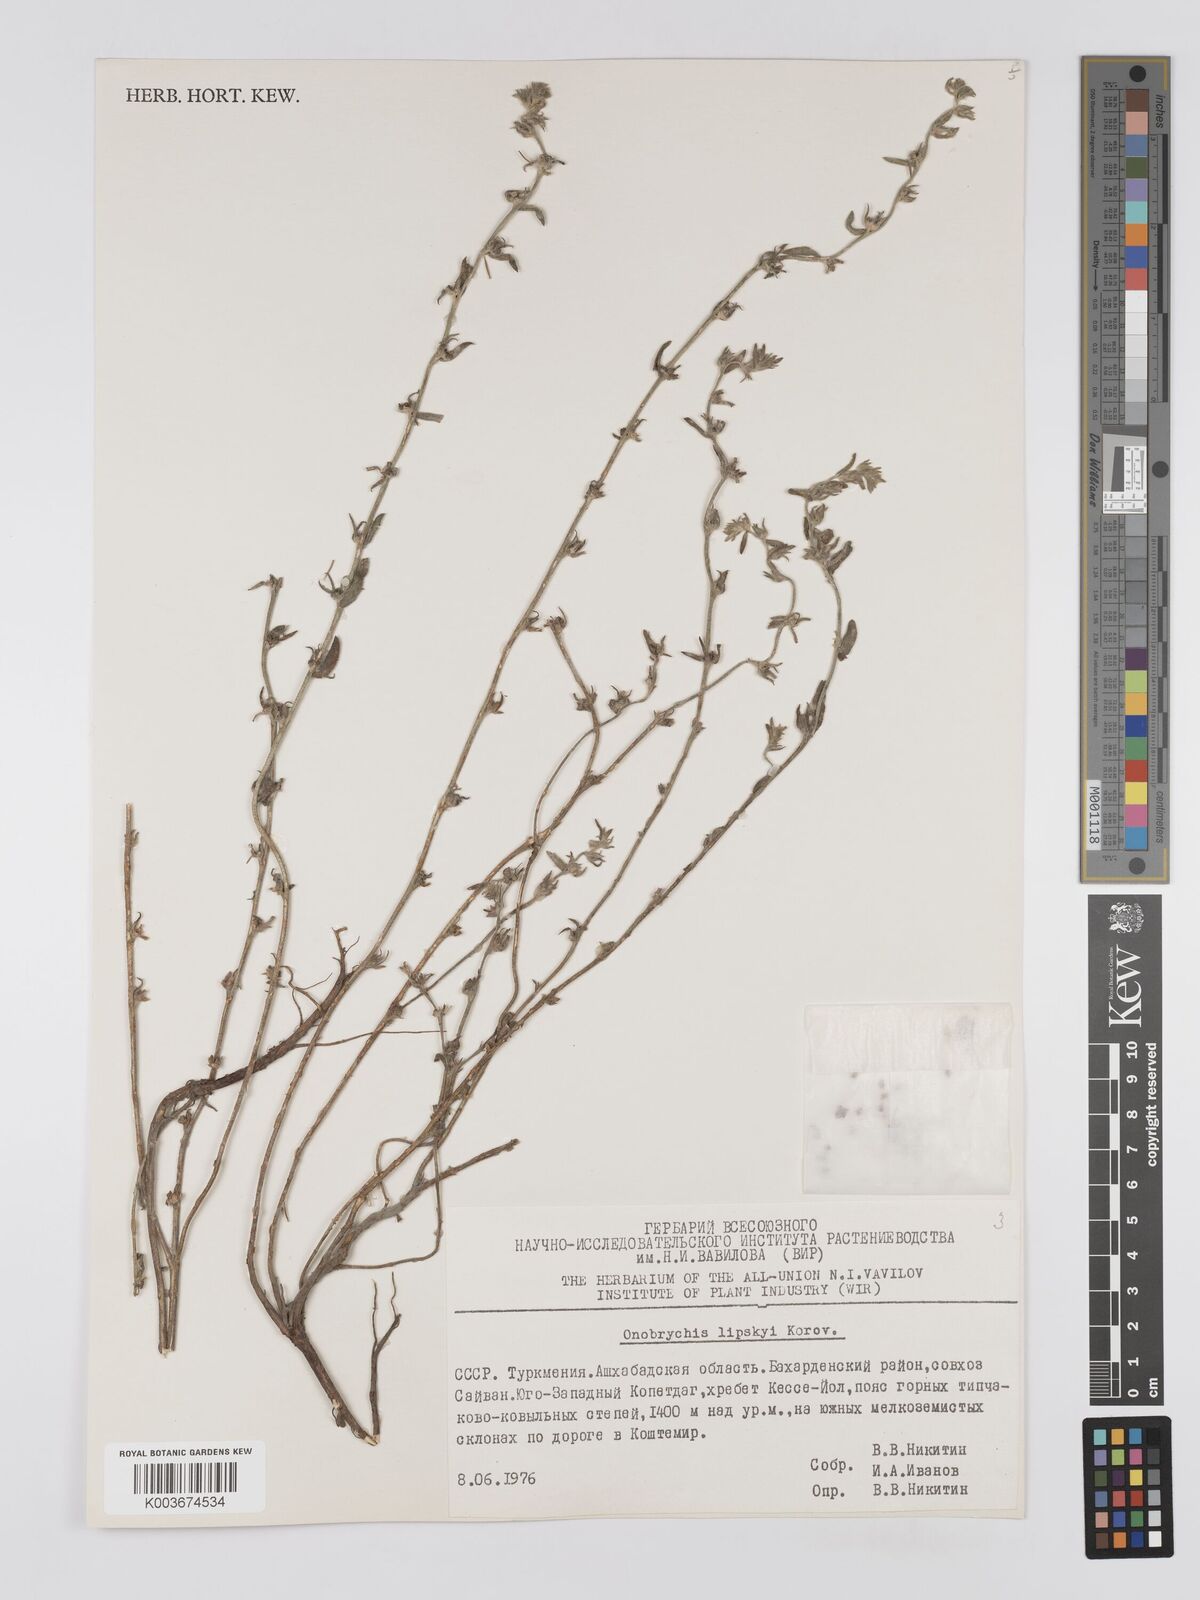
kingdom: Plantae
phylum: Tracheophyta
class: Magnoliopsida
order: Fabales
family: Fabaceae
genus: Onobrychis
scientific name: Onobrychis verae
